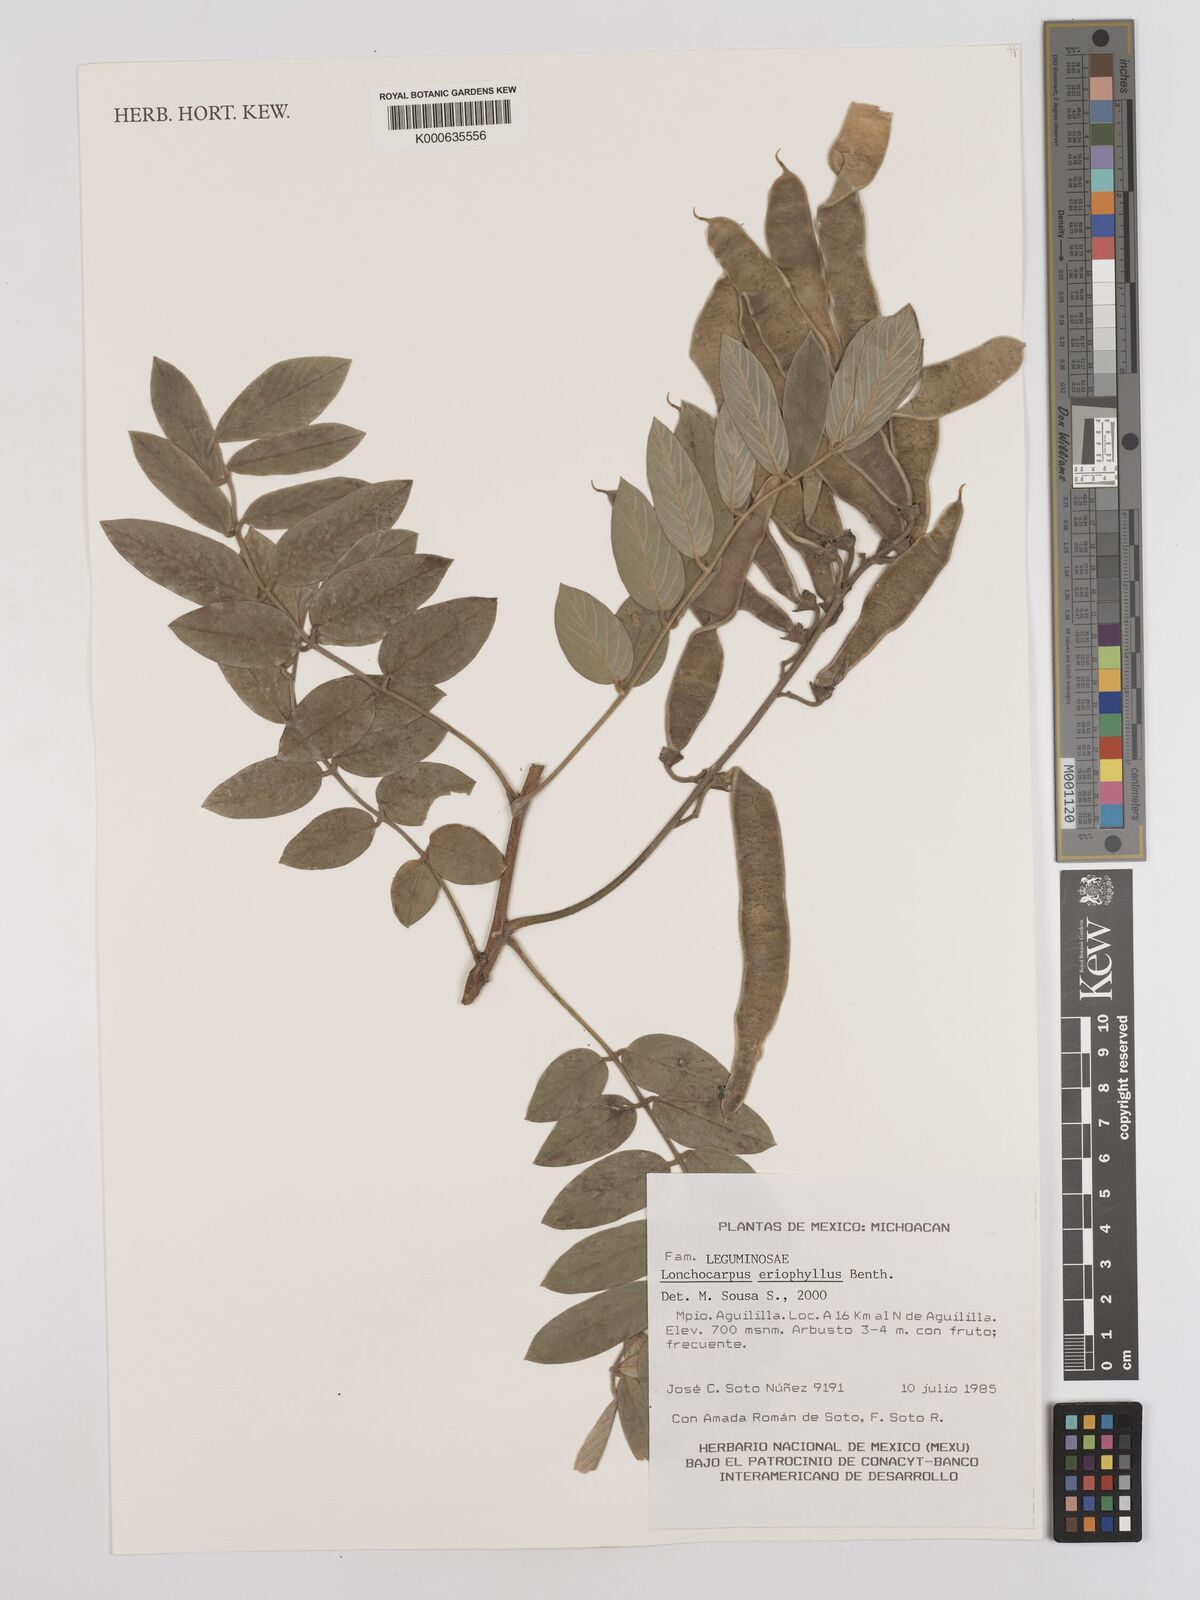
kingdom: Plantae
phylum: Tracheophyta
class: Magnoliopsida
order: Fabales
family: Fabaceae
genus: Lonchocarpus
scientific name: Lonchocarpus eriophyllus
